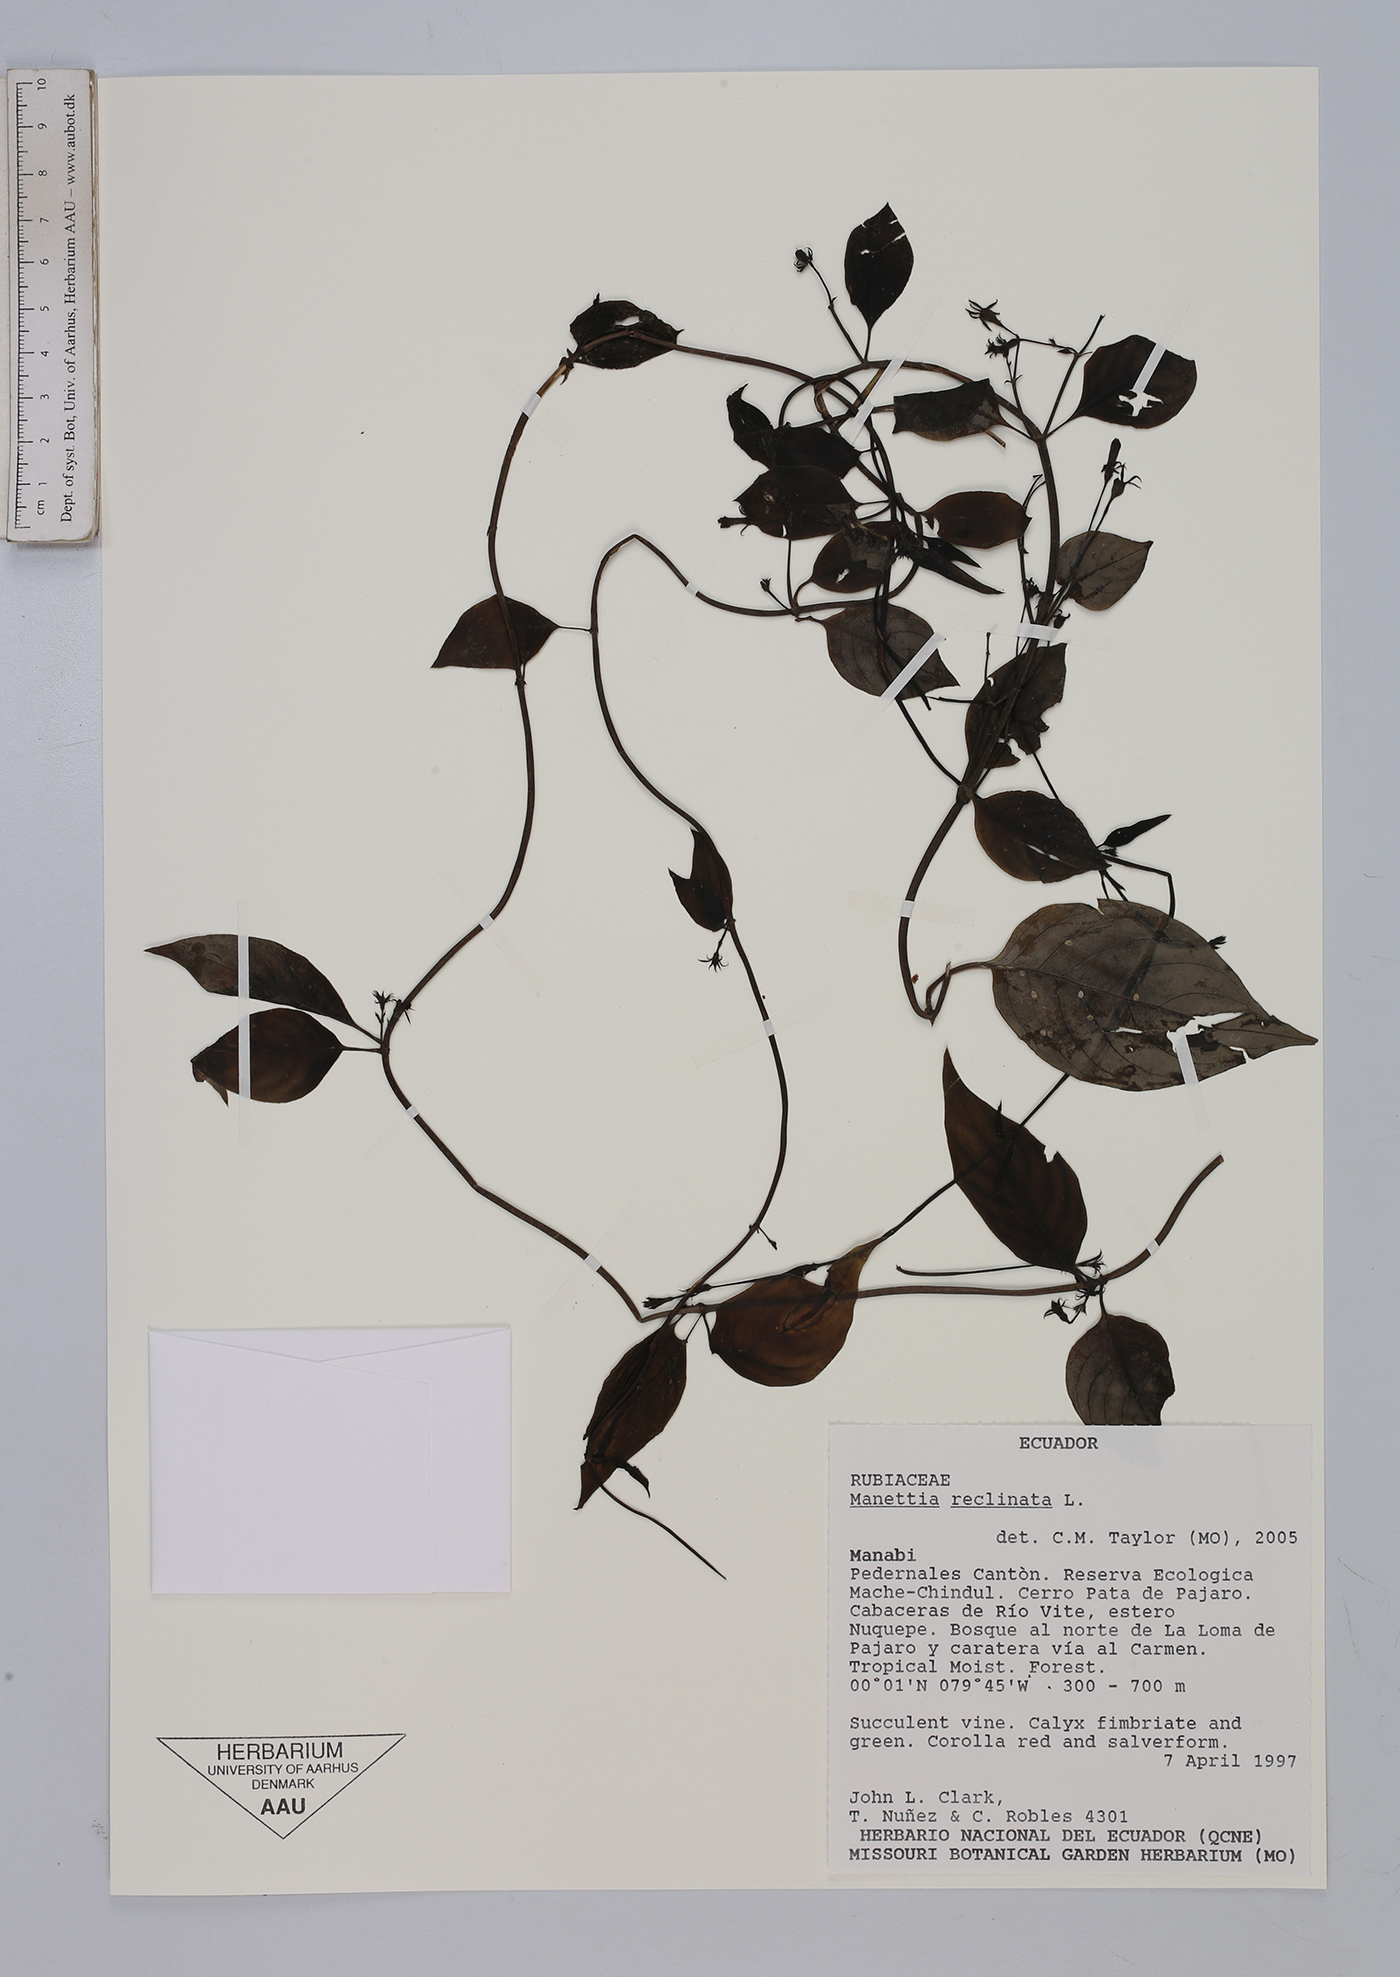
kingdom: Plantae
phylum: Tracheophyta
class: Magnoliopsida
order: Gentianales
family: Rubiaceae
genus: Manettia
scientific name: Manettia reclinata
